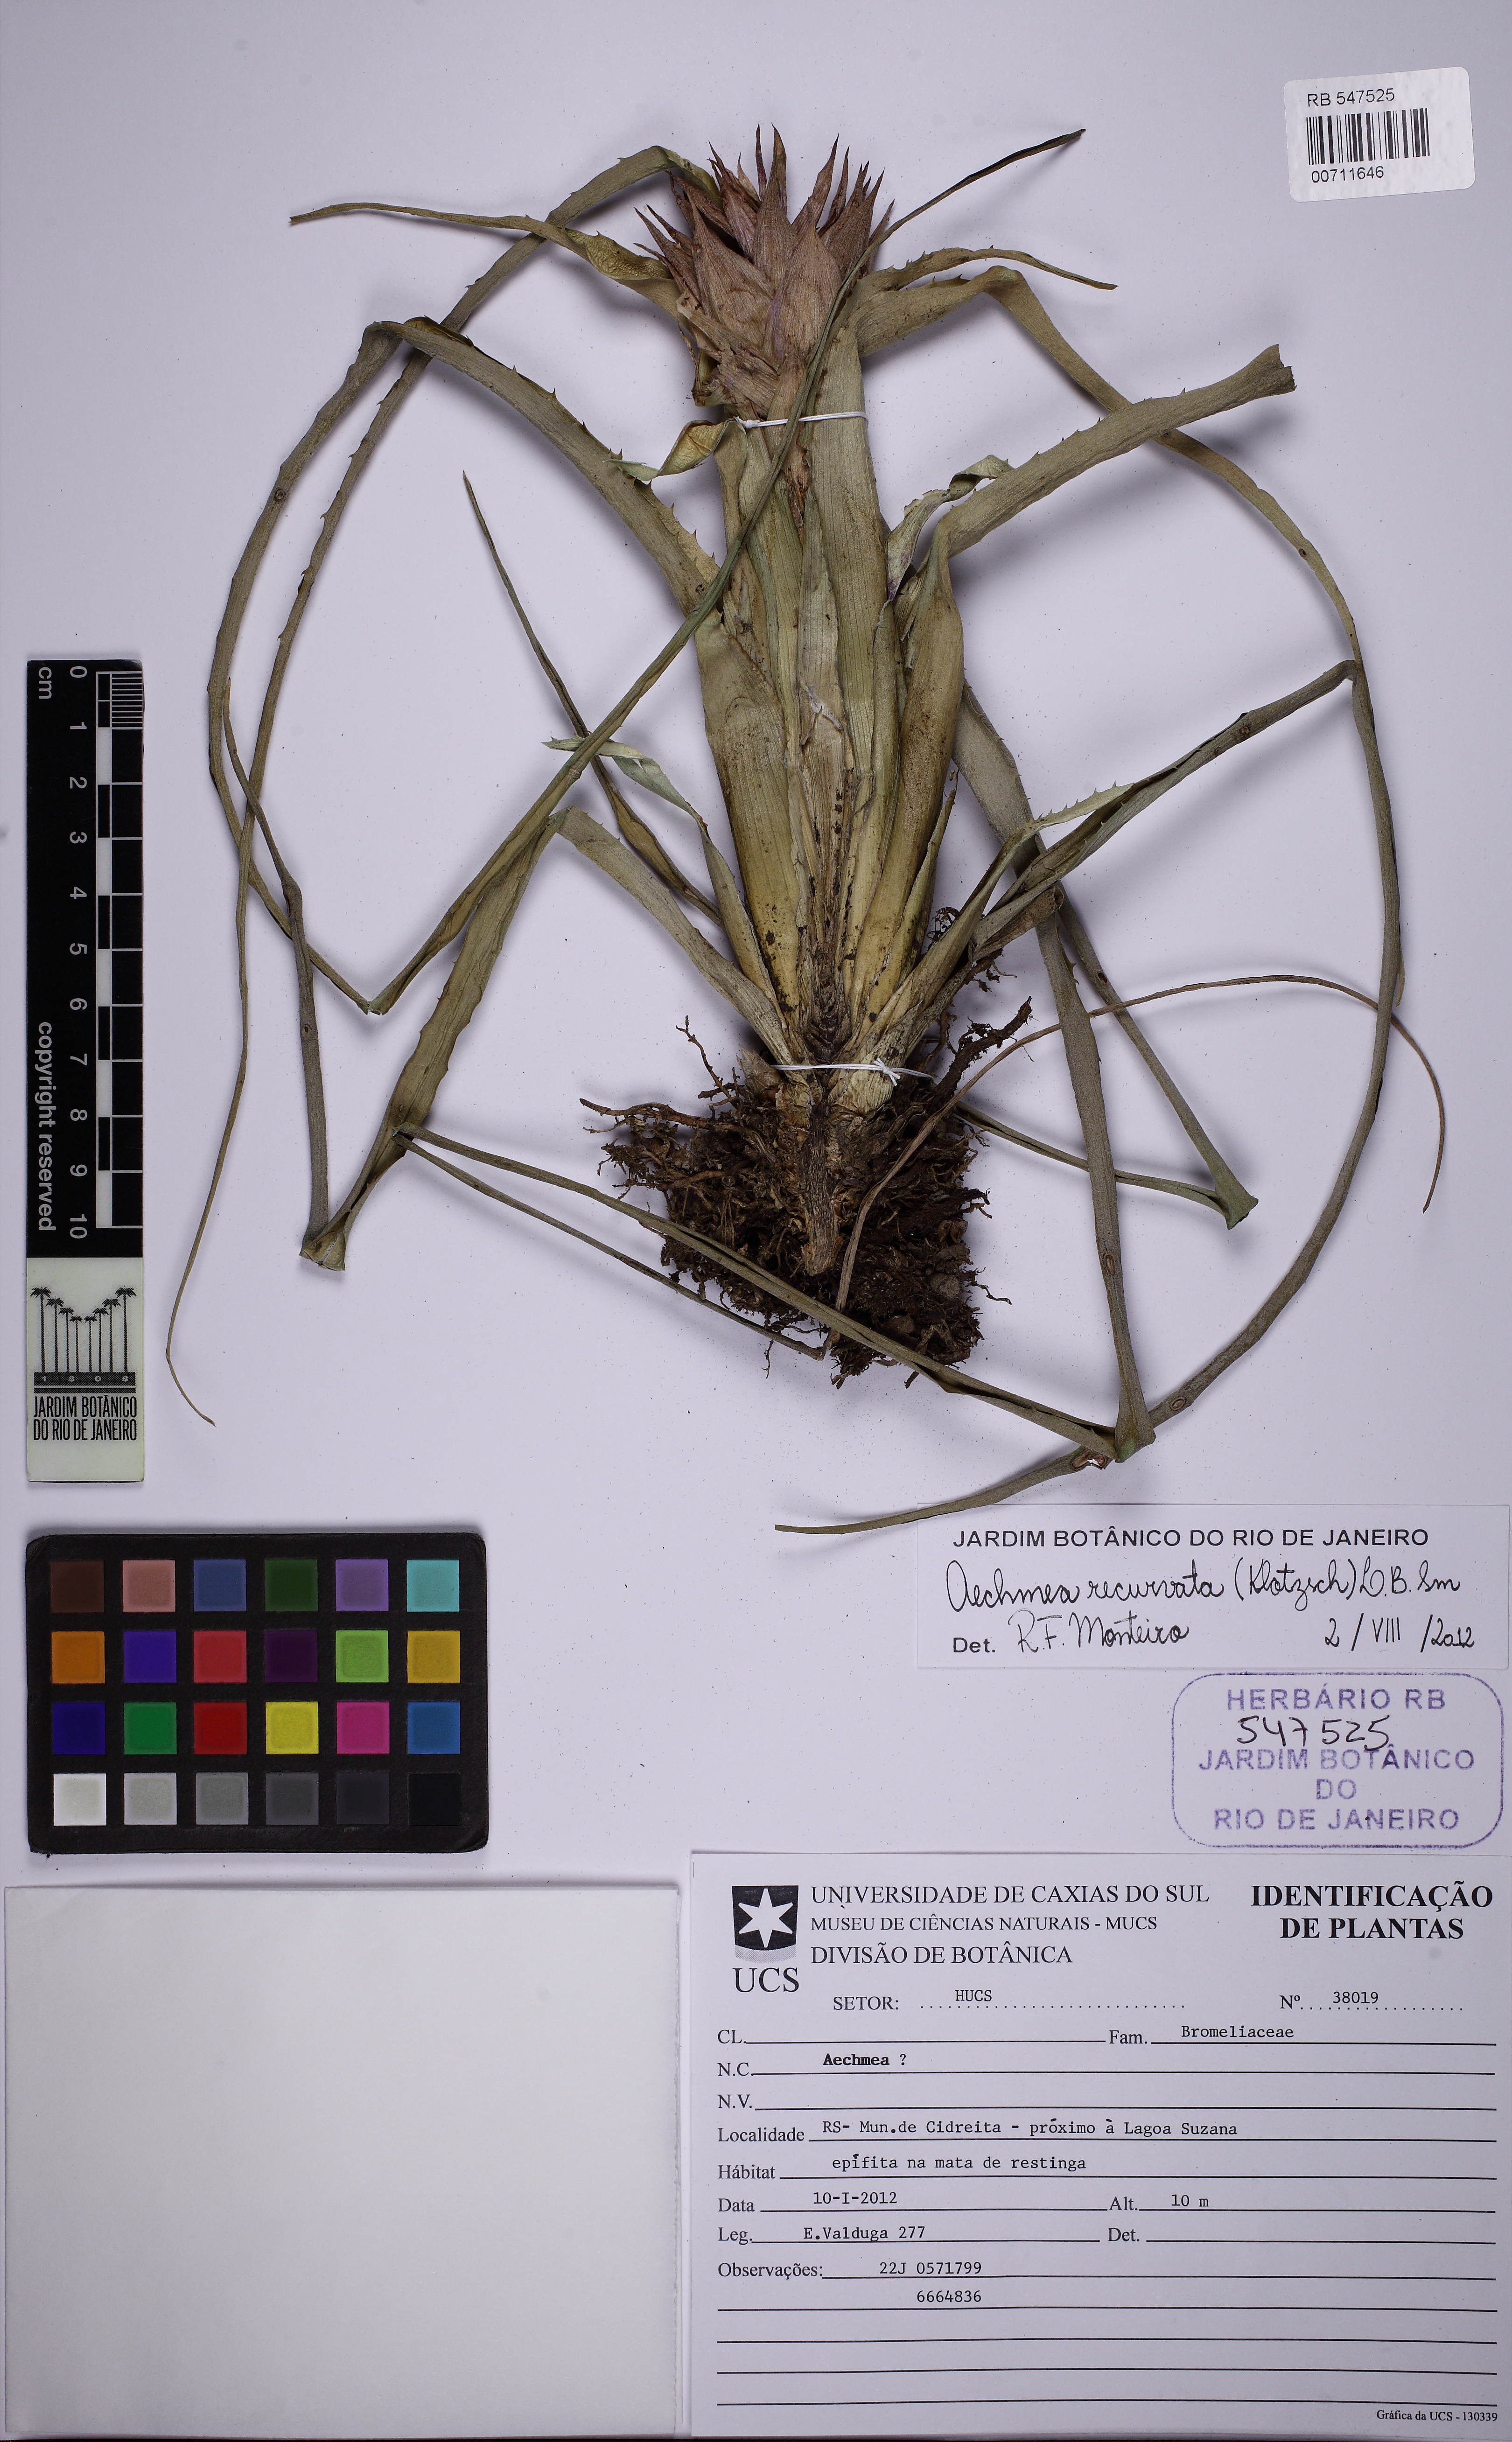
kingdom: Plantae
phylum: Tracheophyta
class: Liliopsida
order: Poales
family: Bromeliaceae
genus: Aechmea
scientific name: Aechmea recurvata
